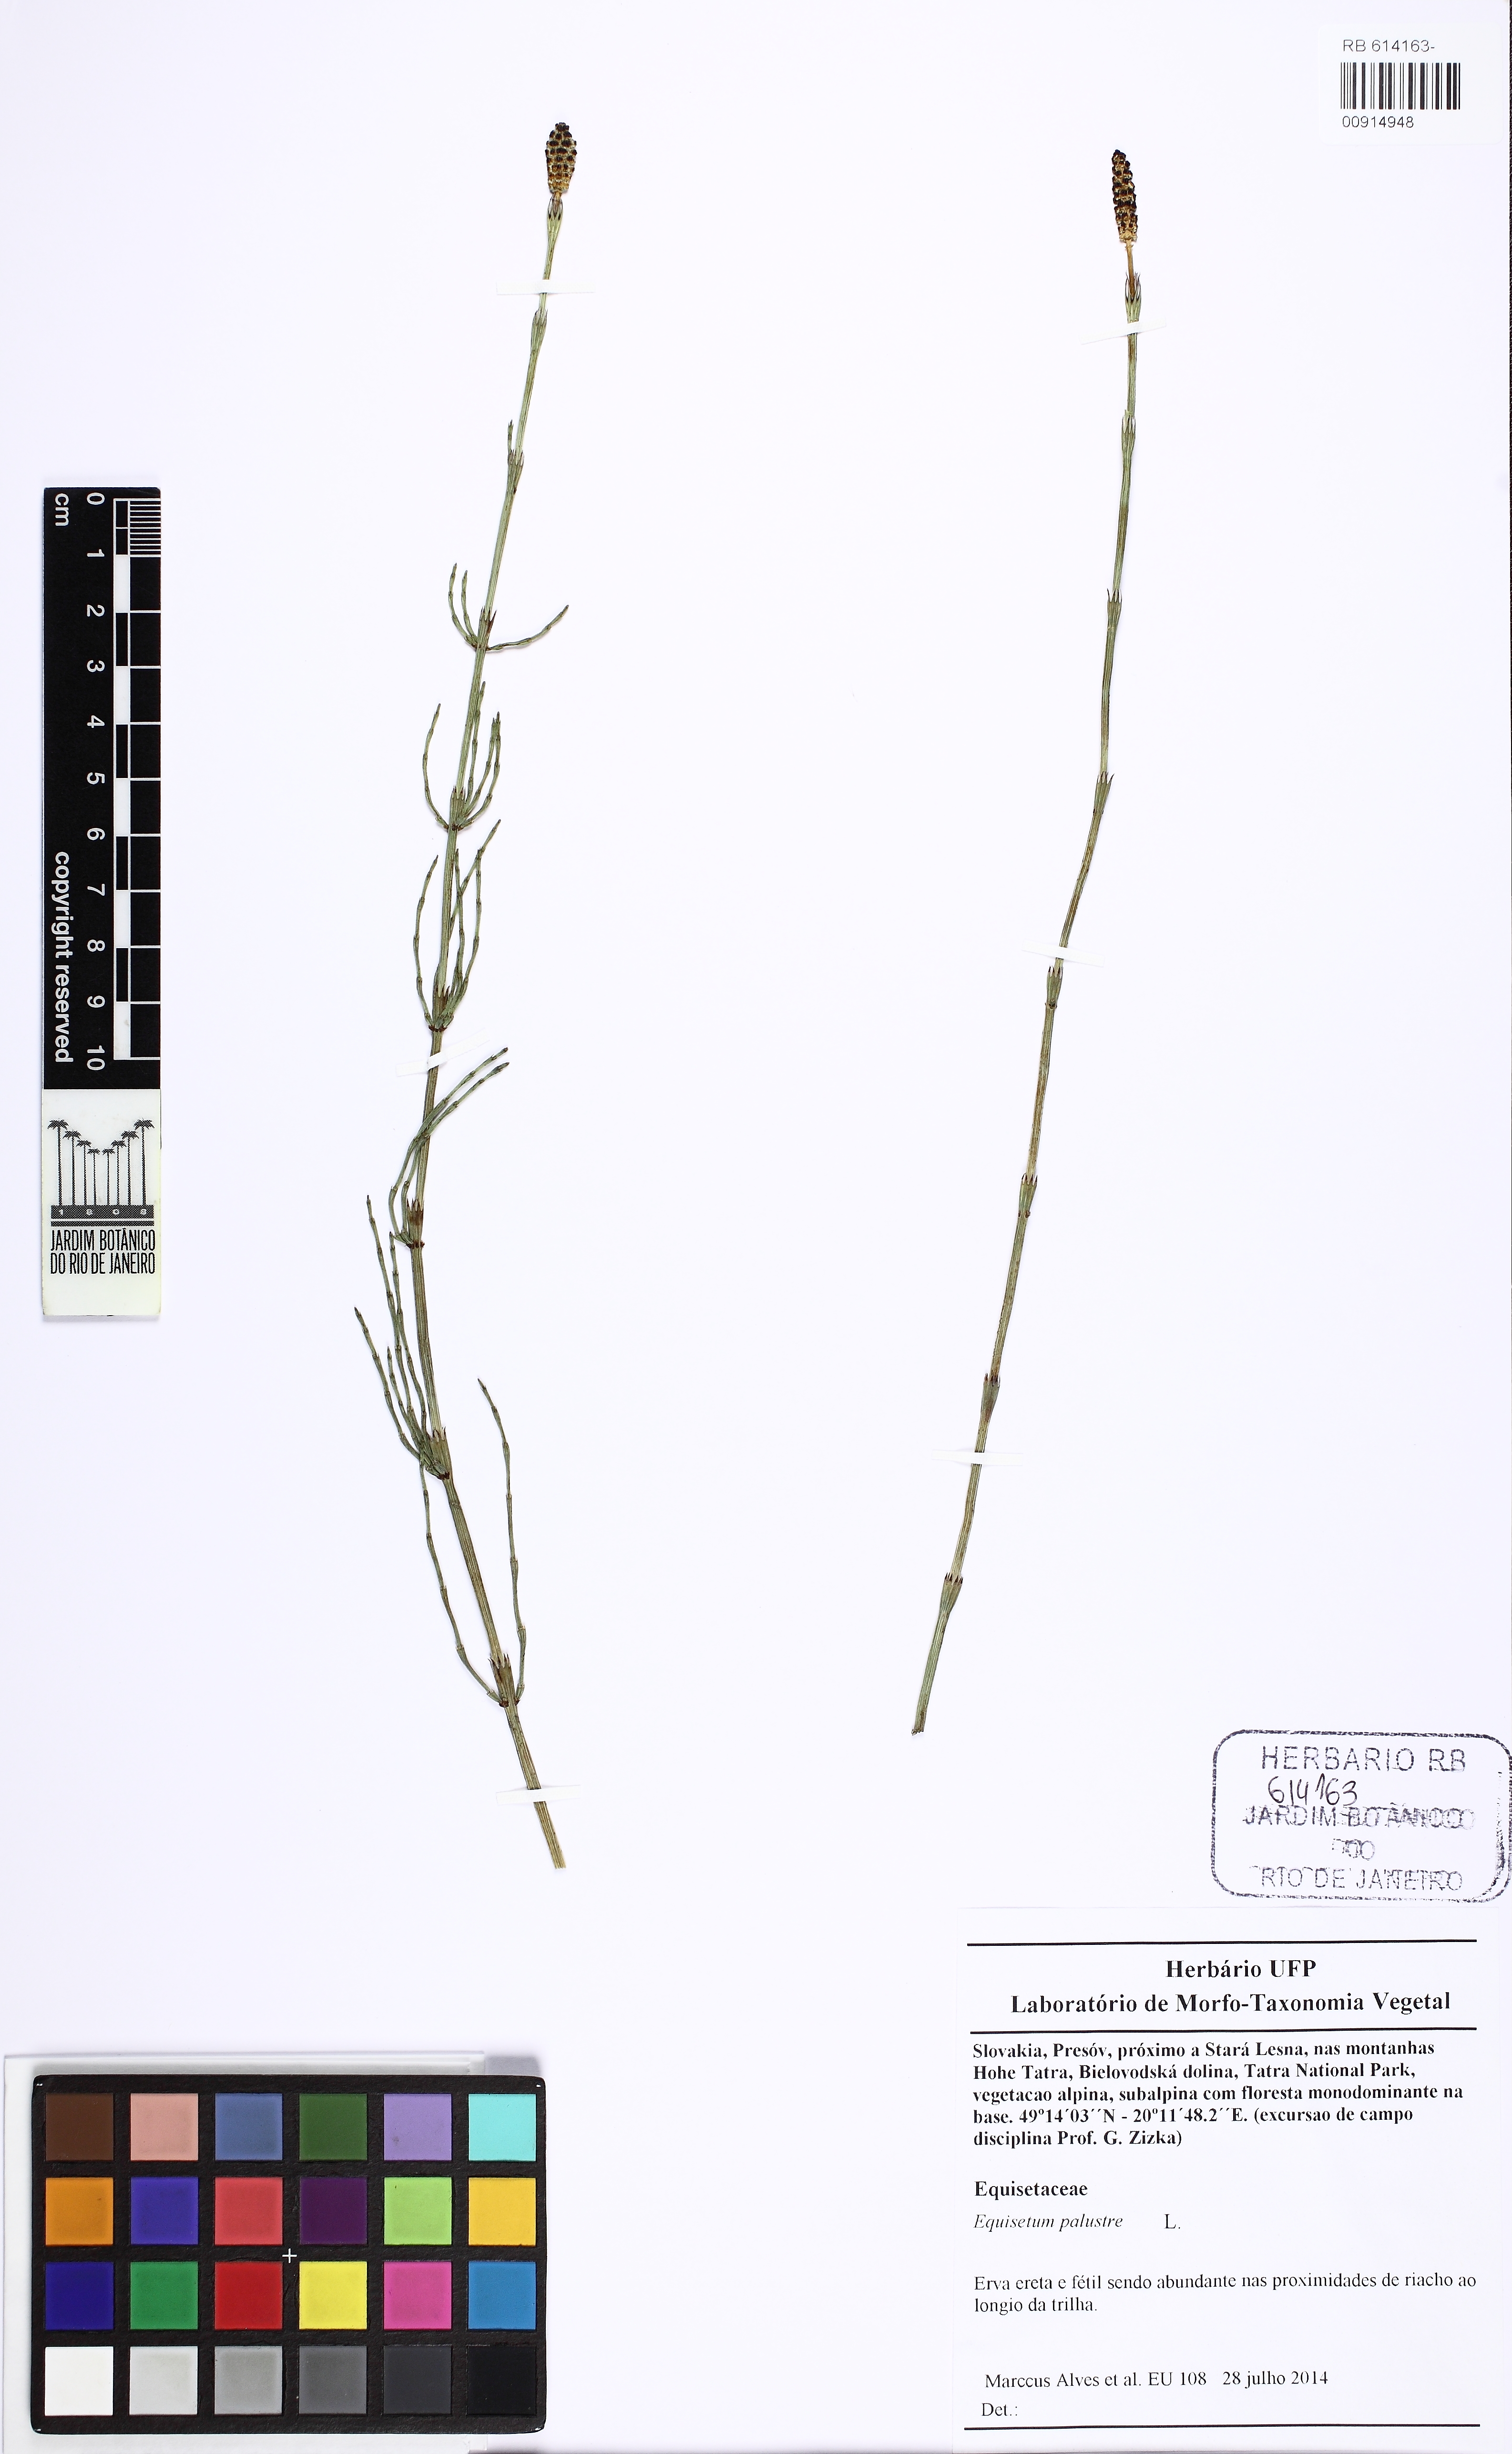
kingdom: Plantae
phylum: Tracheophyta
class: Polypodiopsida
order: Equisetales
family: Equisetaceae
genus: Equisetum
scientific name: Equisetum palustre
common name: Marsh horsetail
